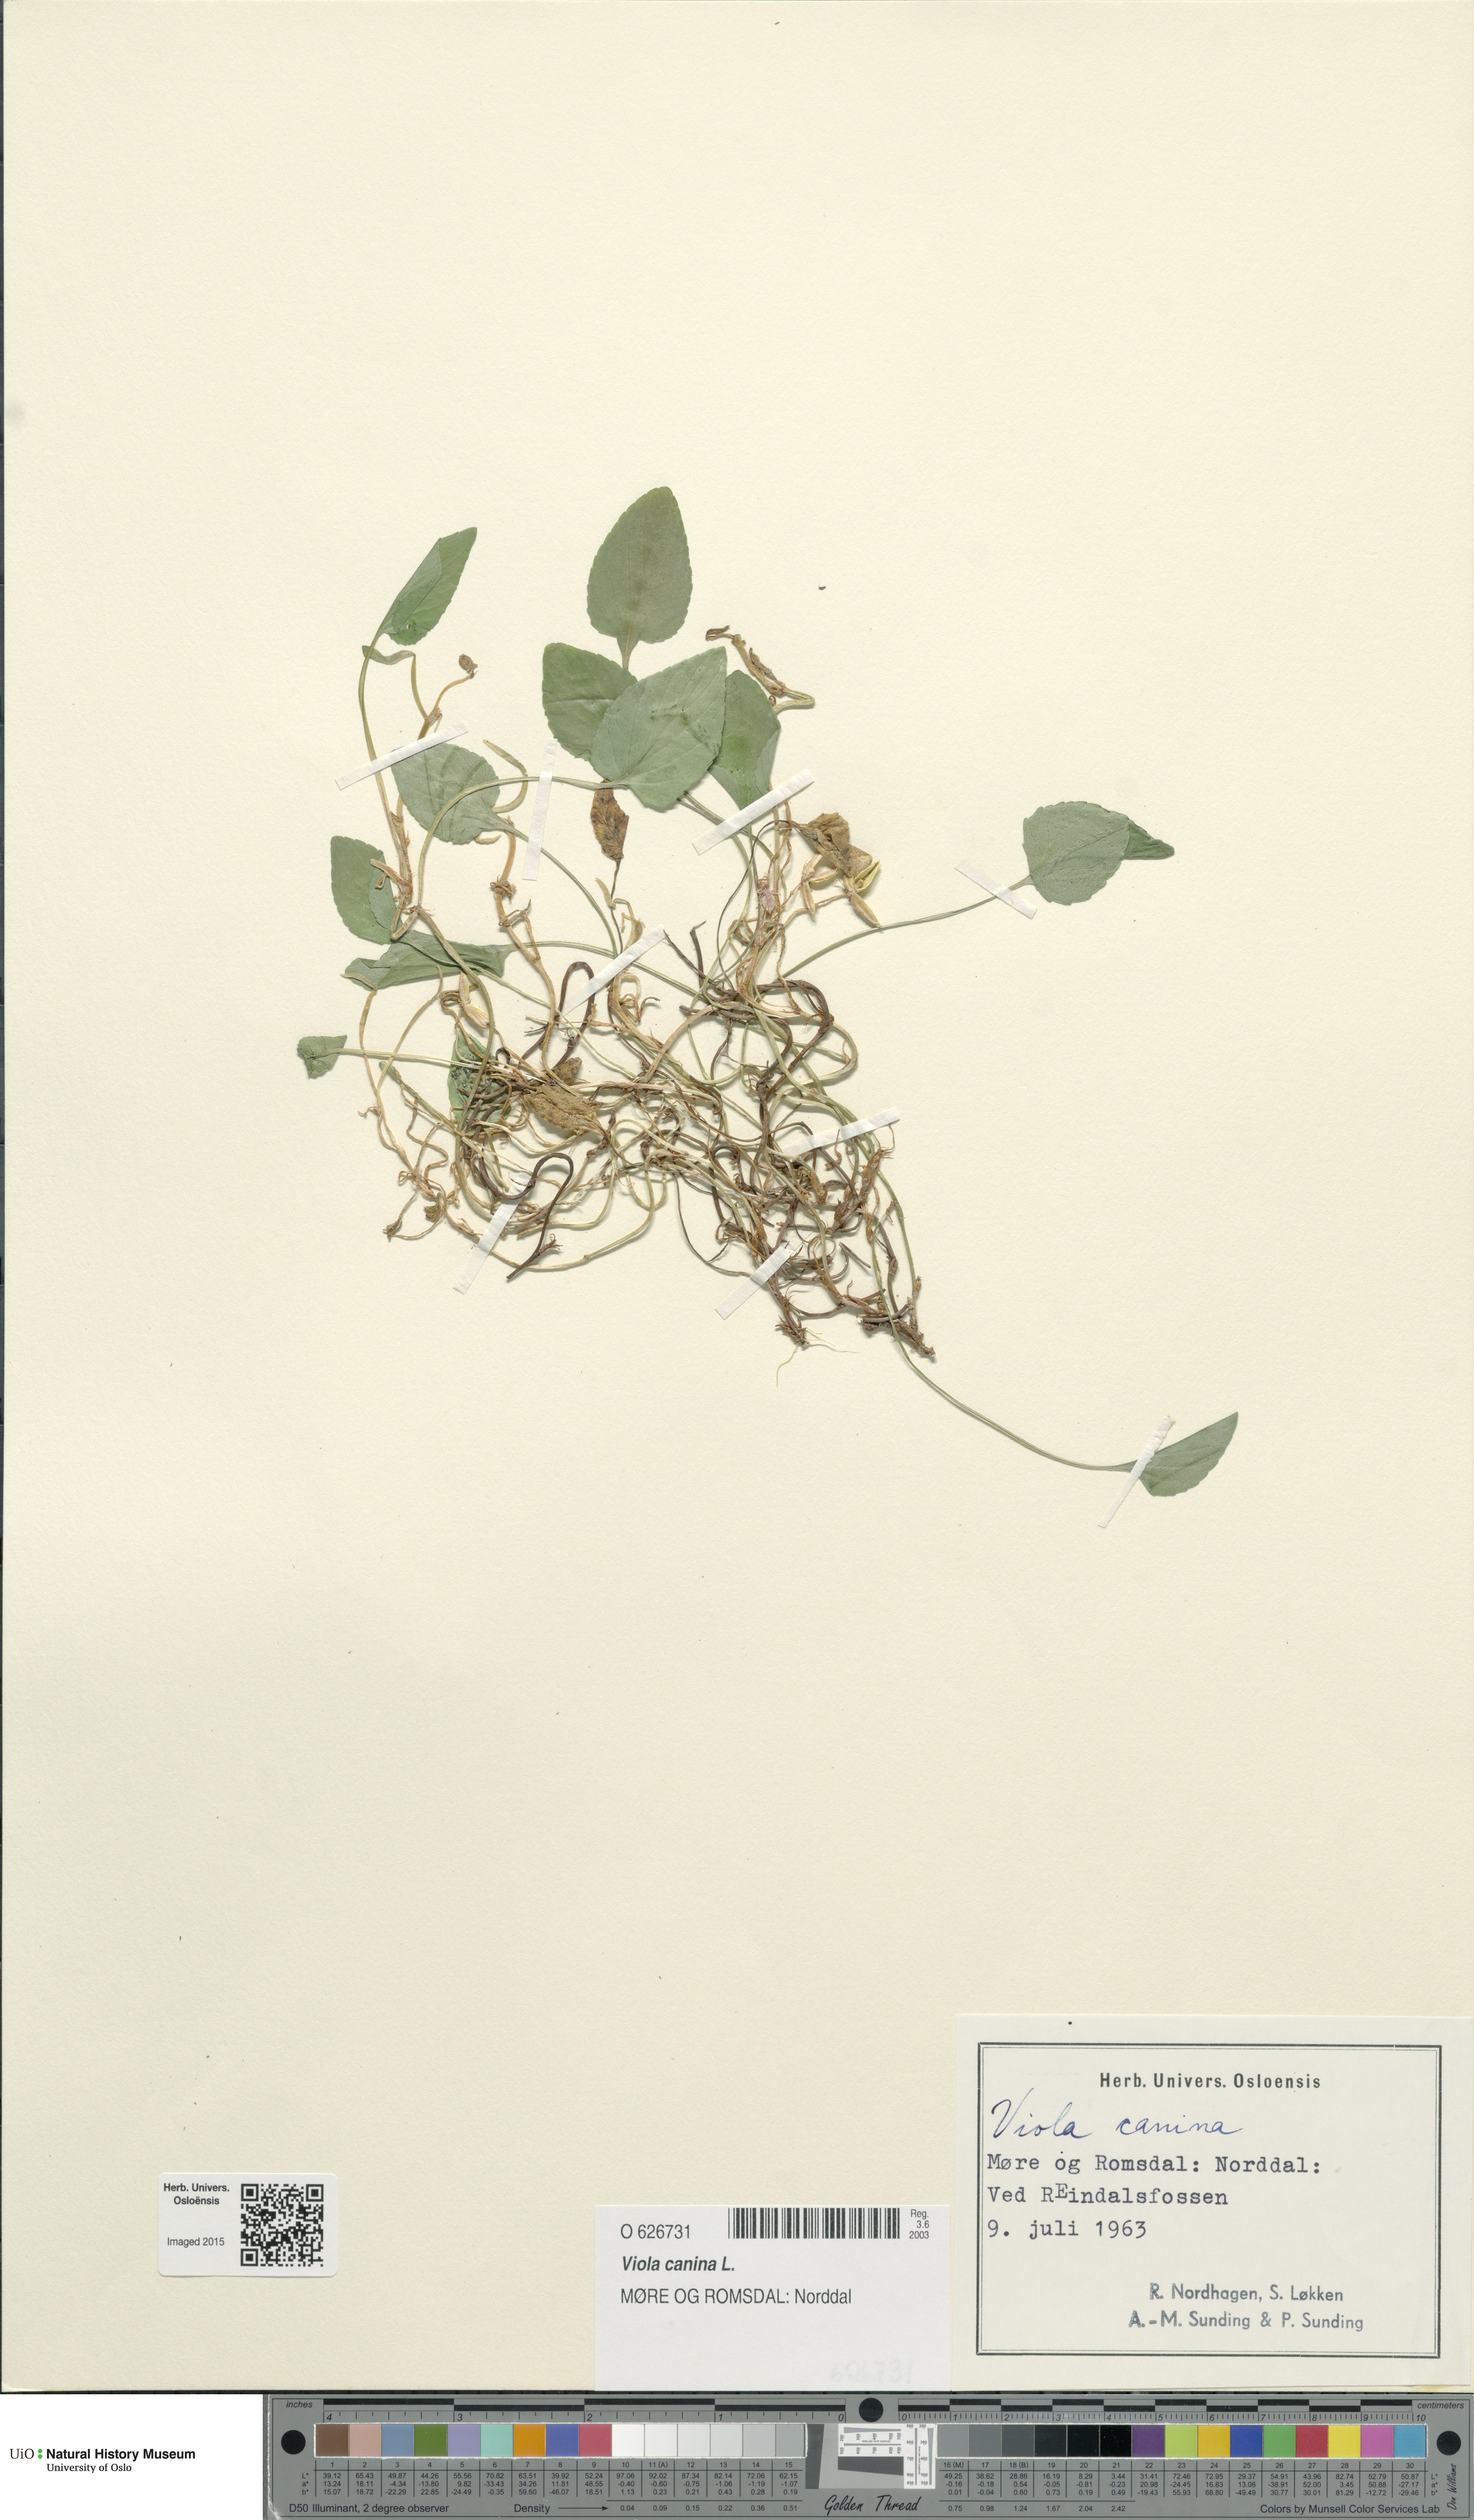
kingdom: Plantae
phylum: Tracheophyta
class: Magnoliopsida
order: Malpighiales
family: Violaceae
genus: Viola
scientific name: Viola canina
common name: Heath dog-violet
